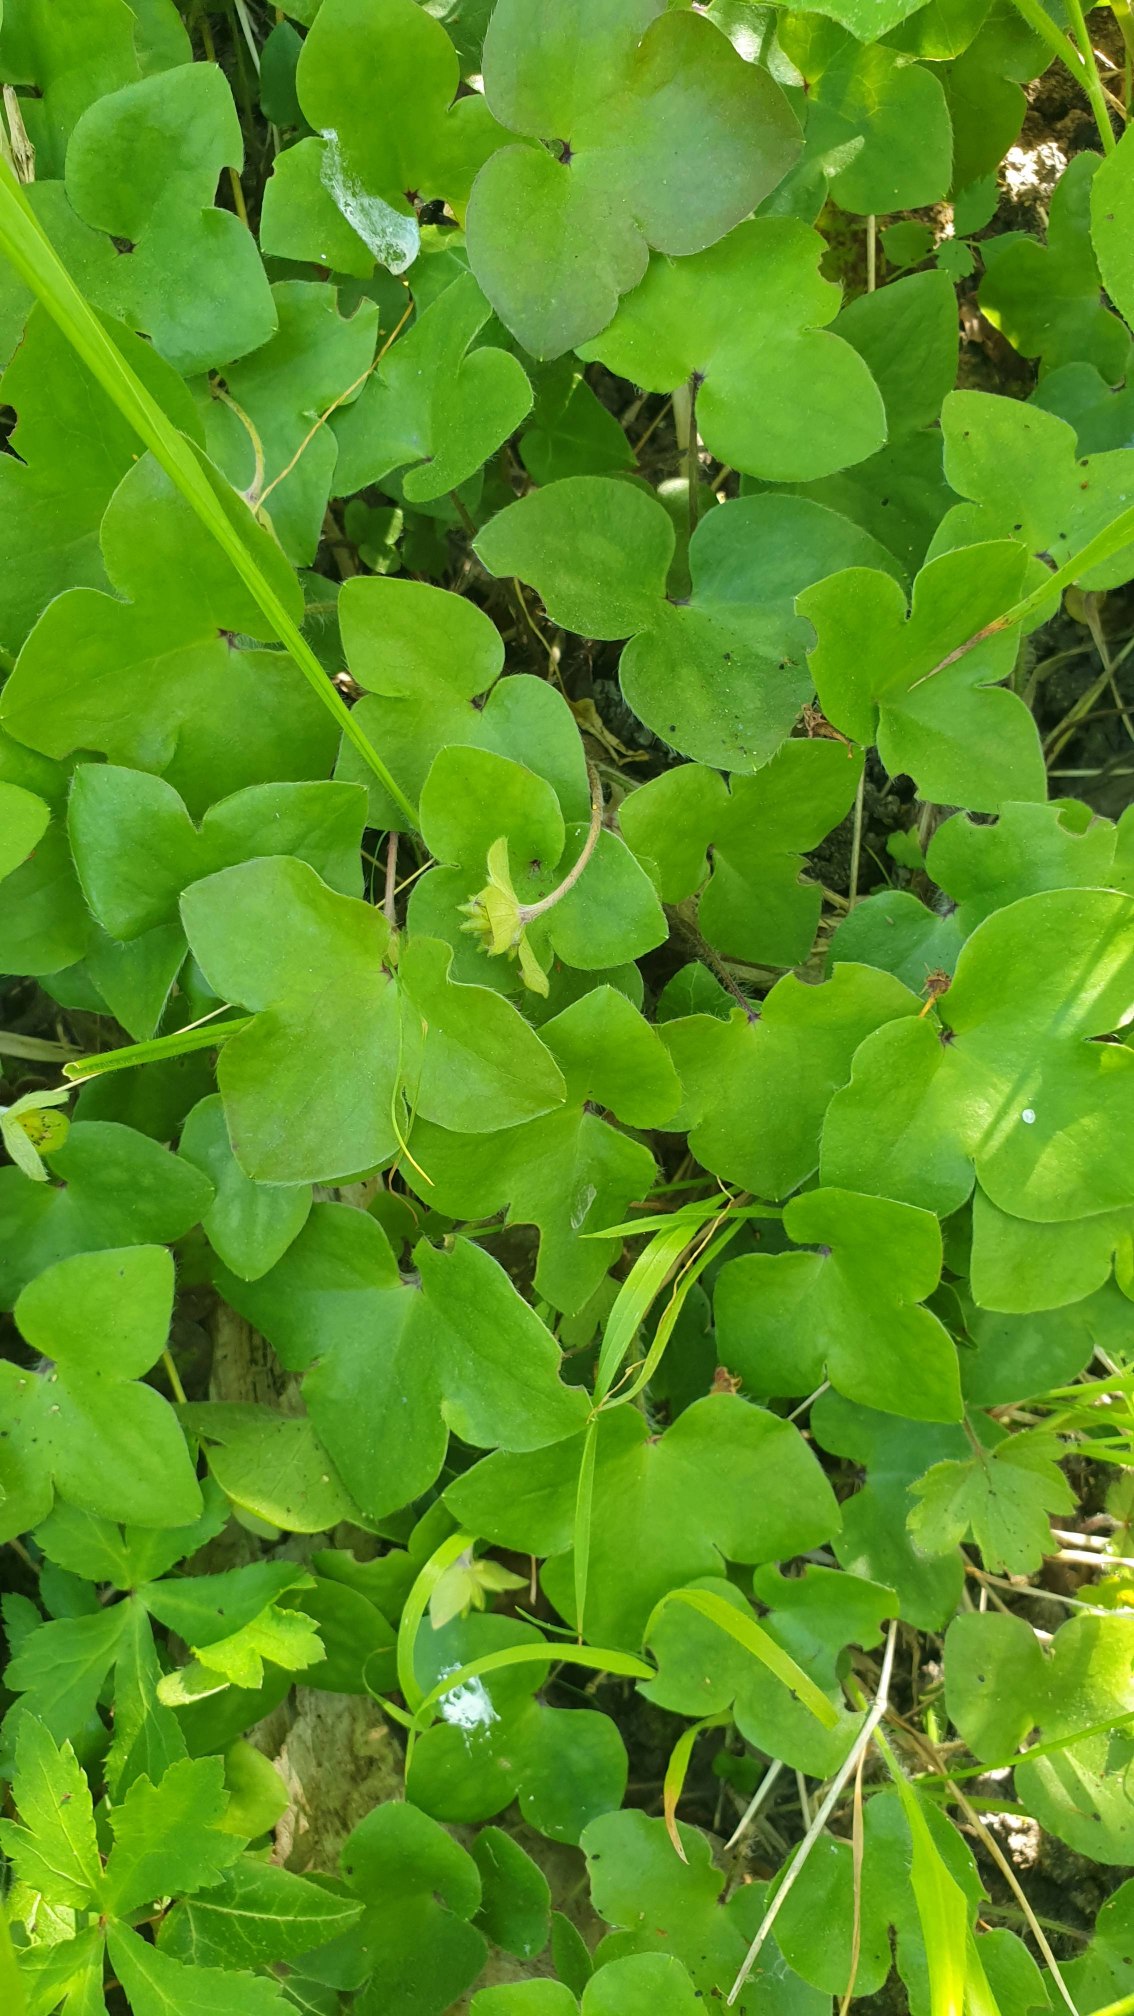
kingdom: Plantae
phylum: Tracheophyta
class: Magnoliopsida
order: Ranunculales
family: Ranunculaceae
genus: Hepatica
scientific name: Hepatica nobilis
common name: Blå anemone
